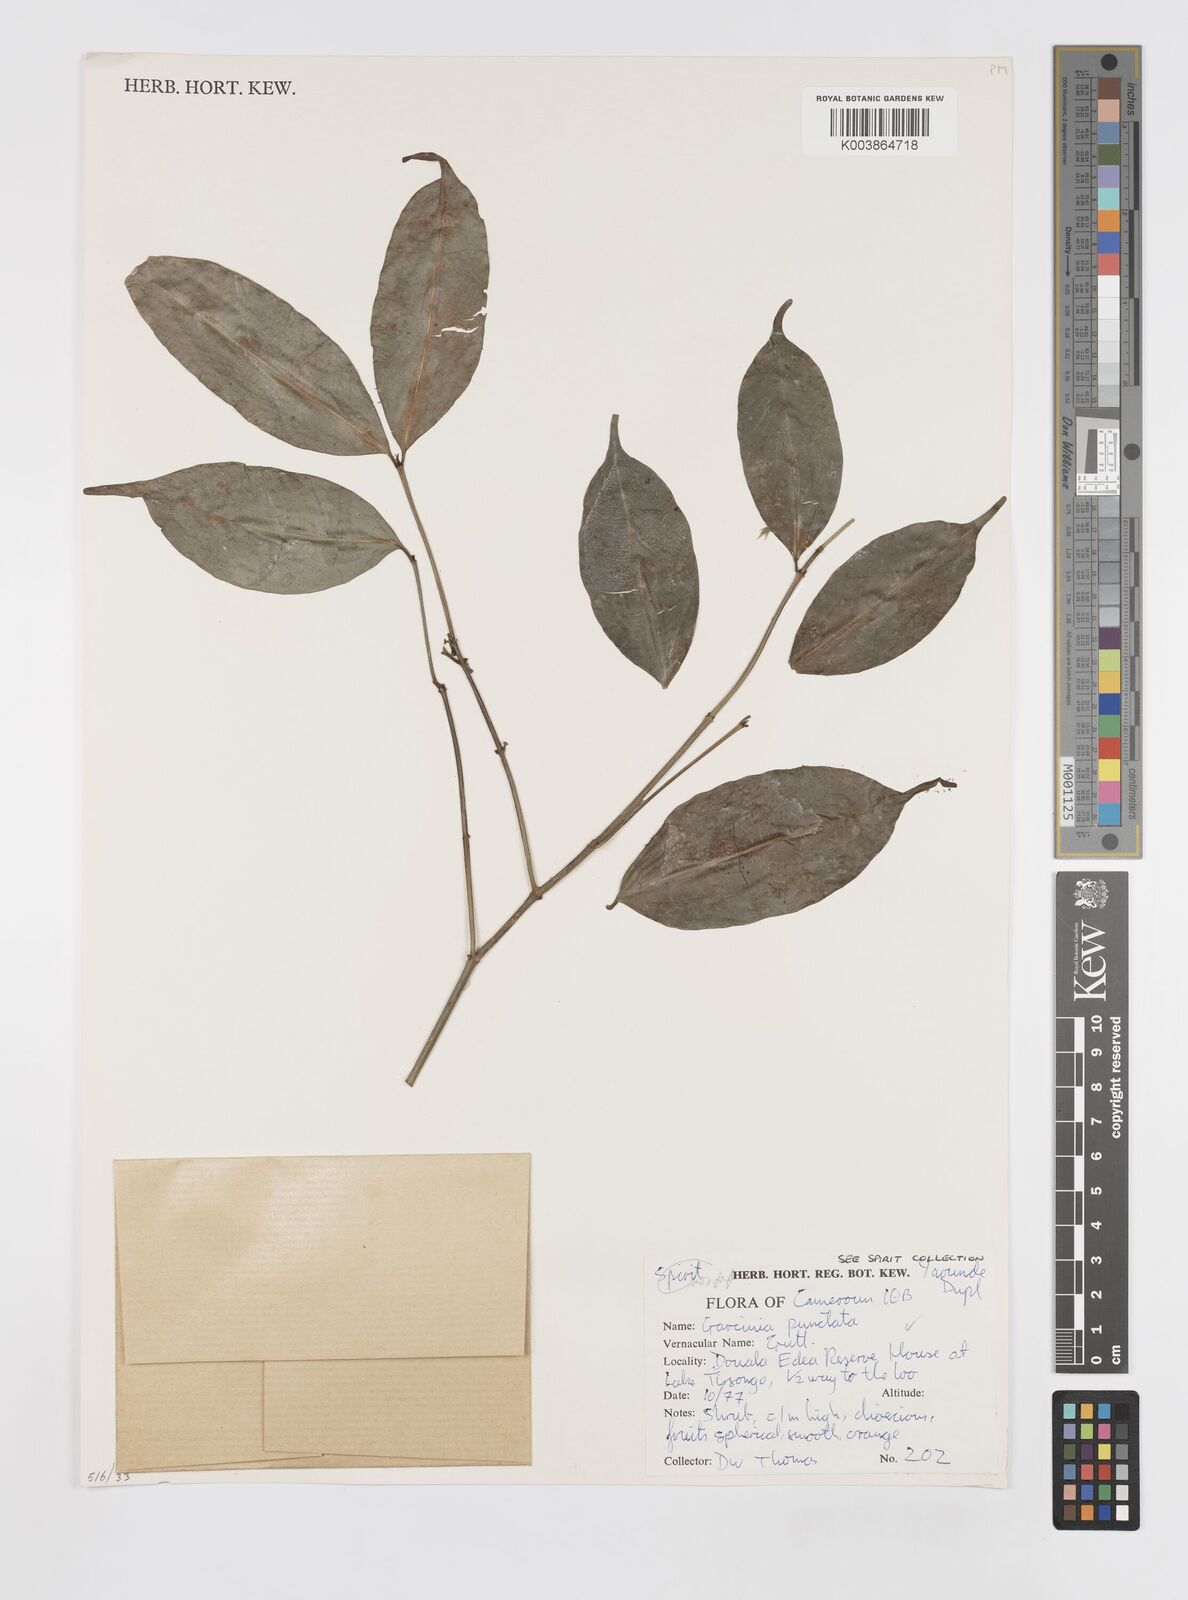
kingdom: Plantae
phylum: Tracheophyta
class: Magnoliopsida
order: Malpighiales
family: Clusiaceae
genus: Garcinia
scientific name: Garcinia punctata
